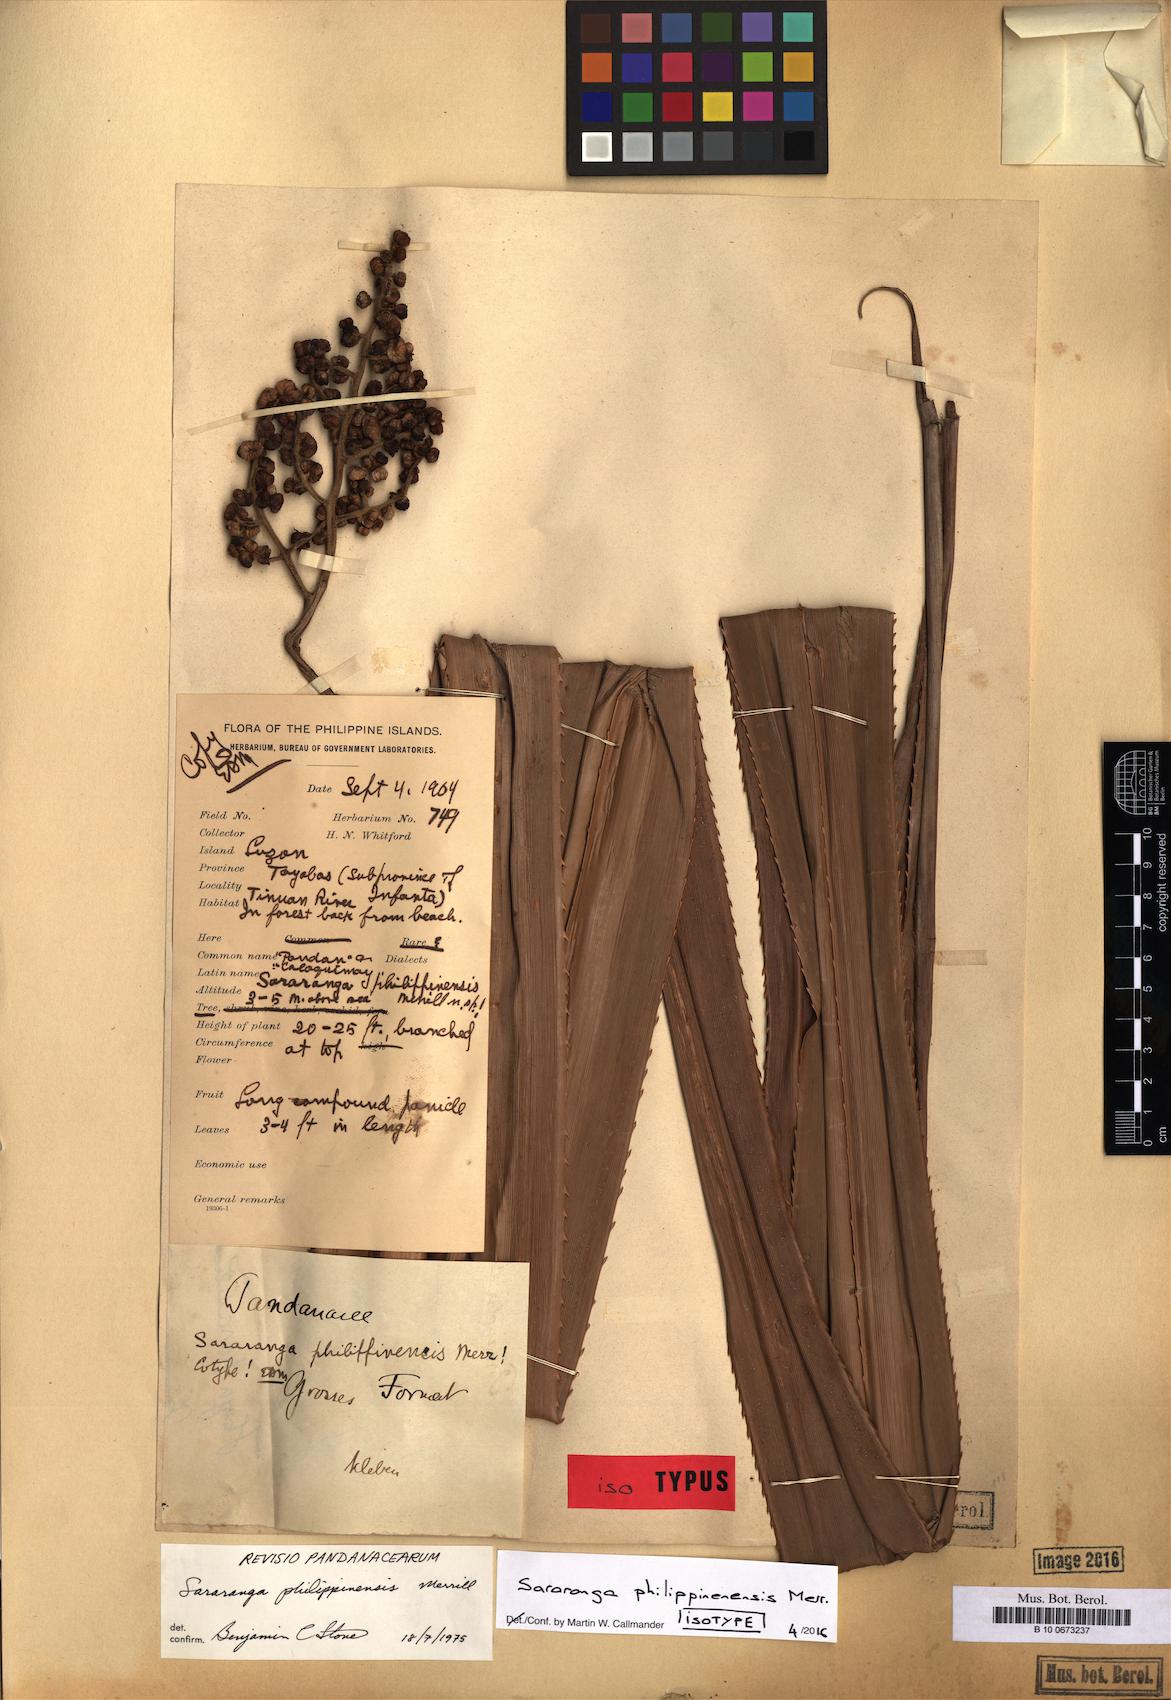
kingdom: Plantae
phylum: Tracheophyta
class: Liliopsida
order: Pandanales
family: Pandanaceae
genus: Sararanga
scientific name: Sararanga philippinensis
